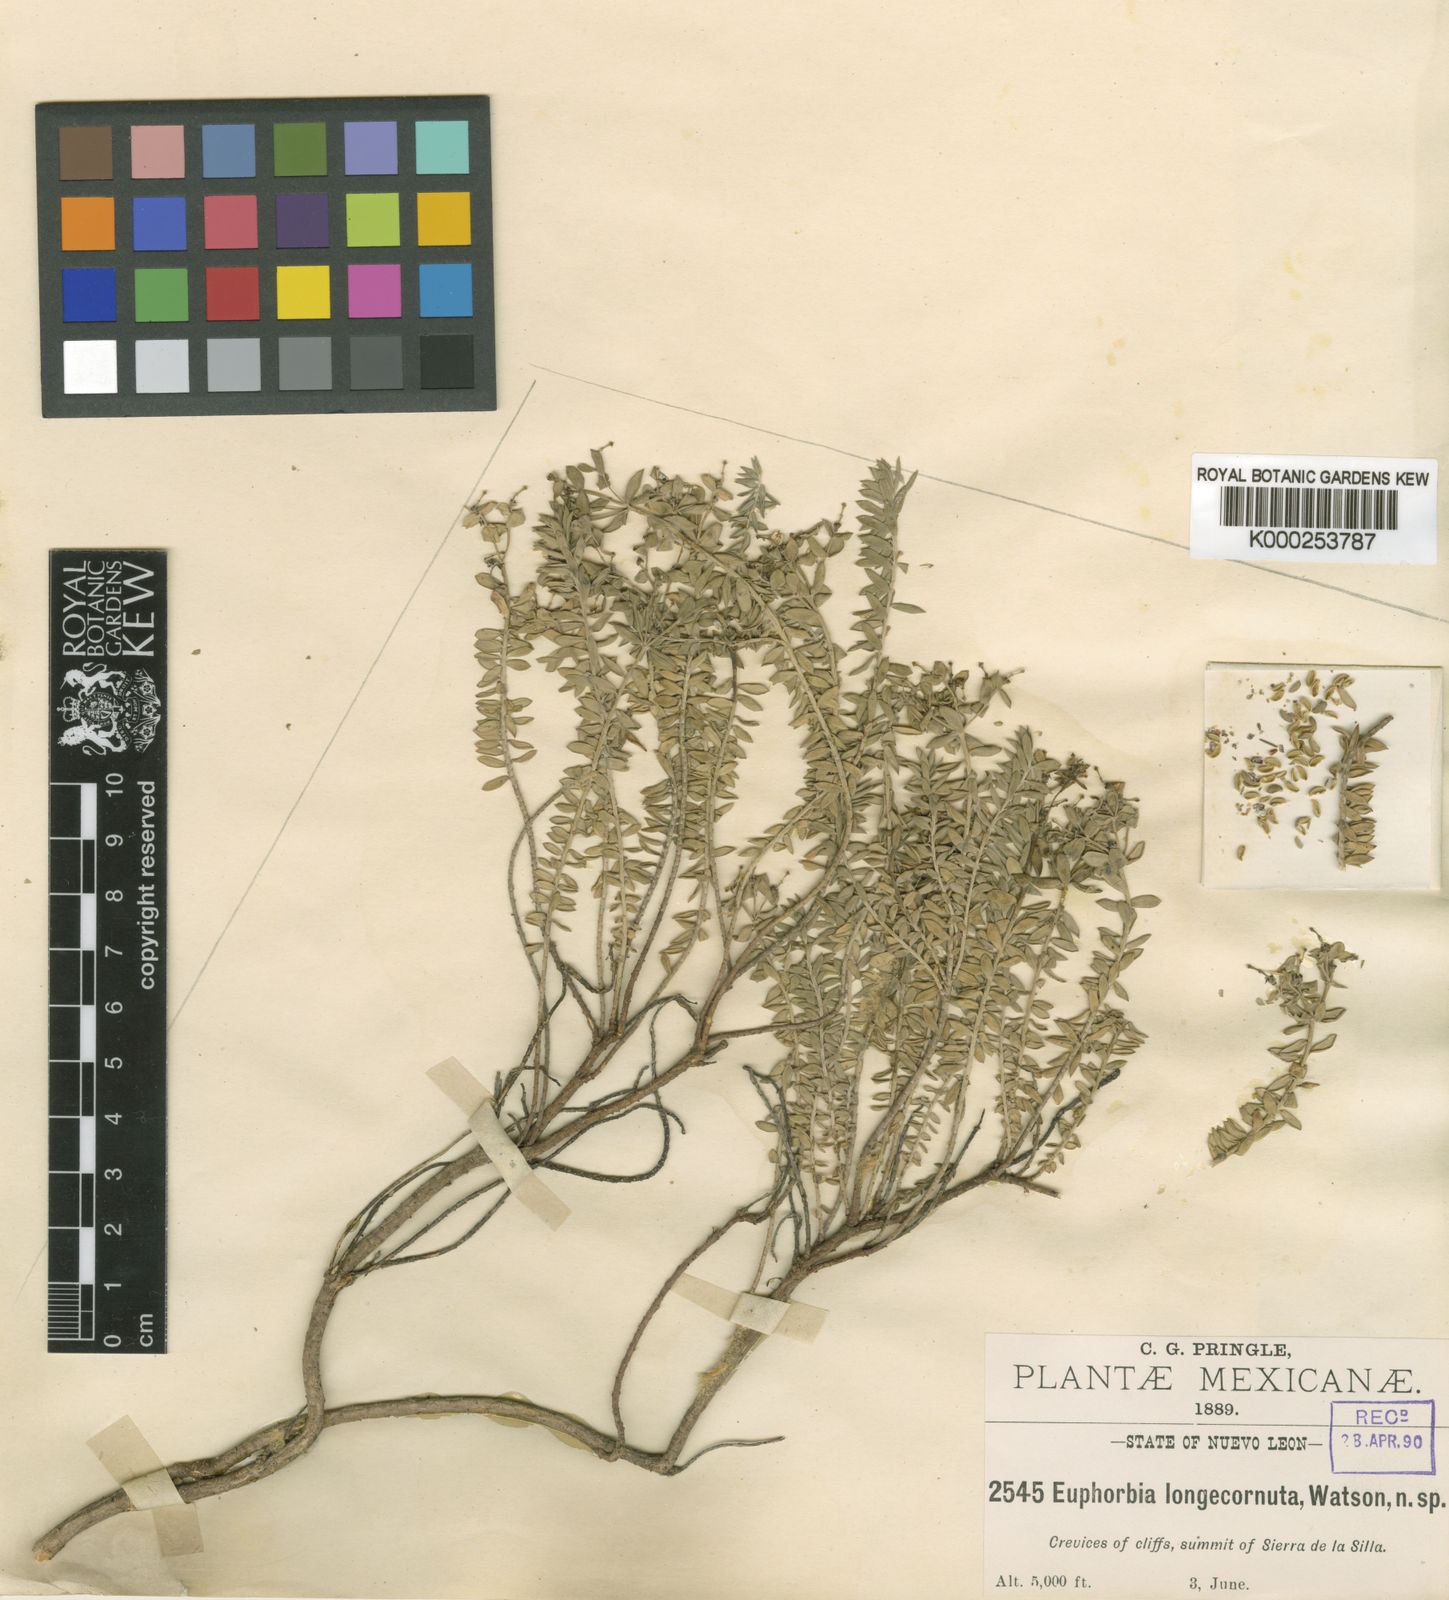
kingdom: Plantae
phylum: Tracheophyta
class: Magnoliopsida
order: Malpighiales
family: Euphorbiaceae
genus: Euphorbia
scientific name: Euphorbia
